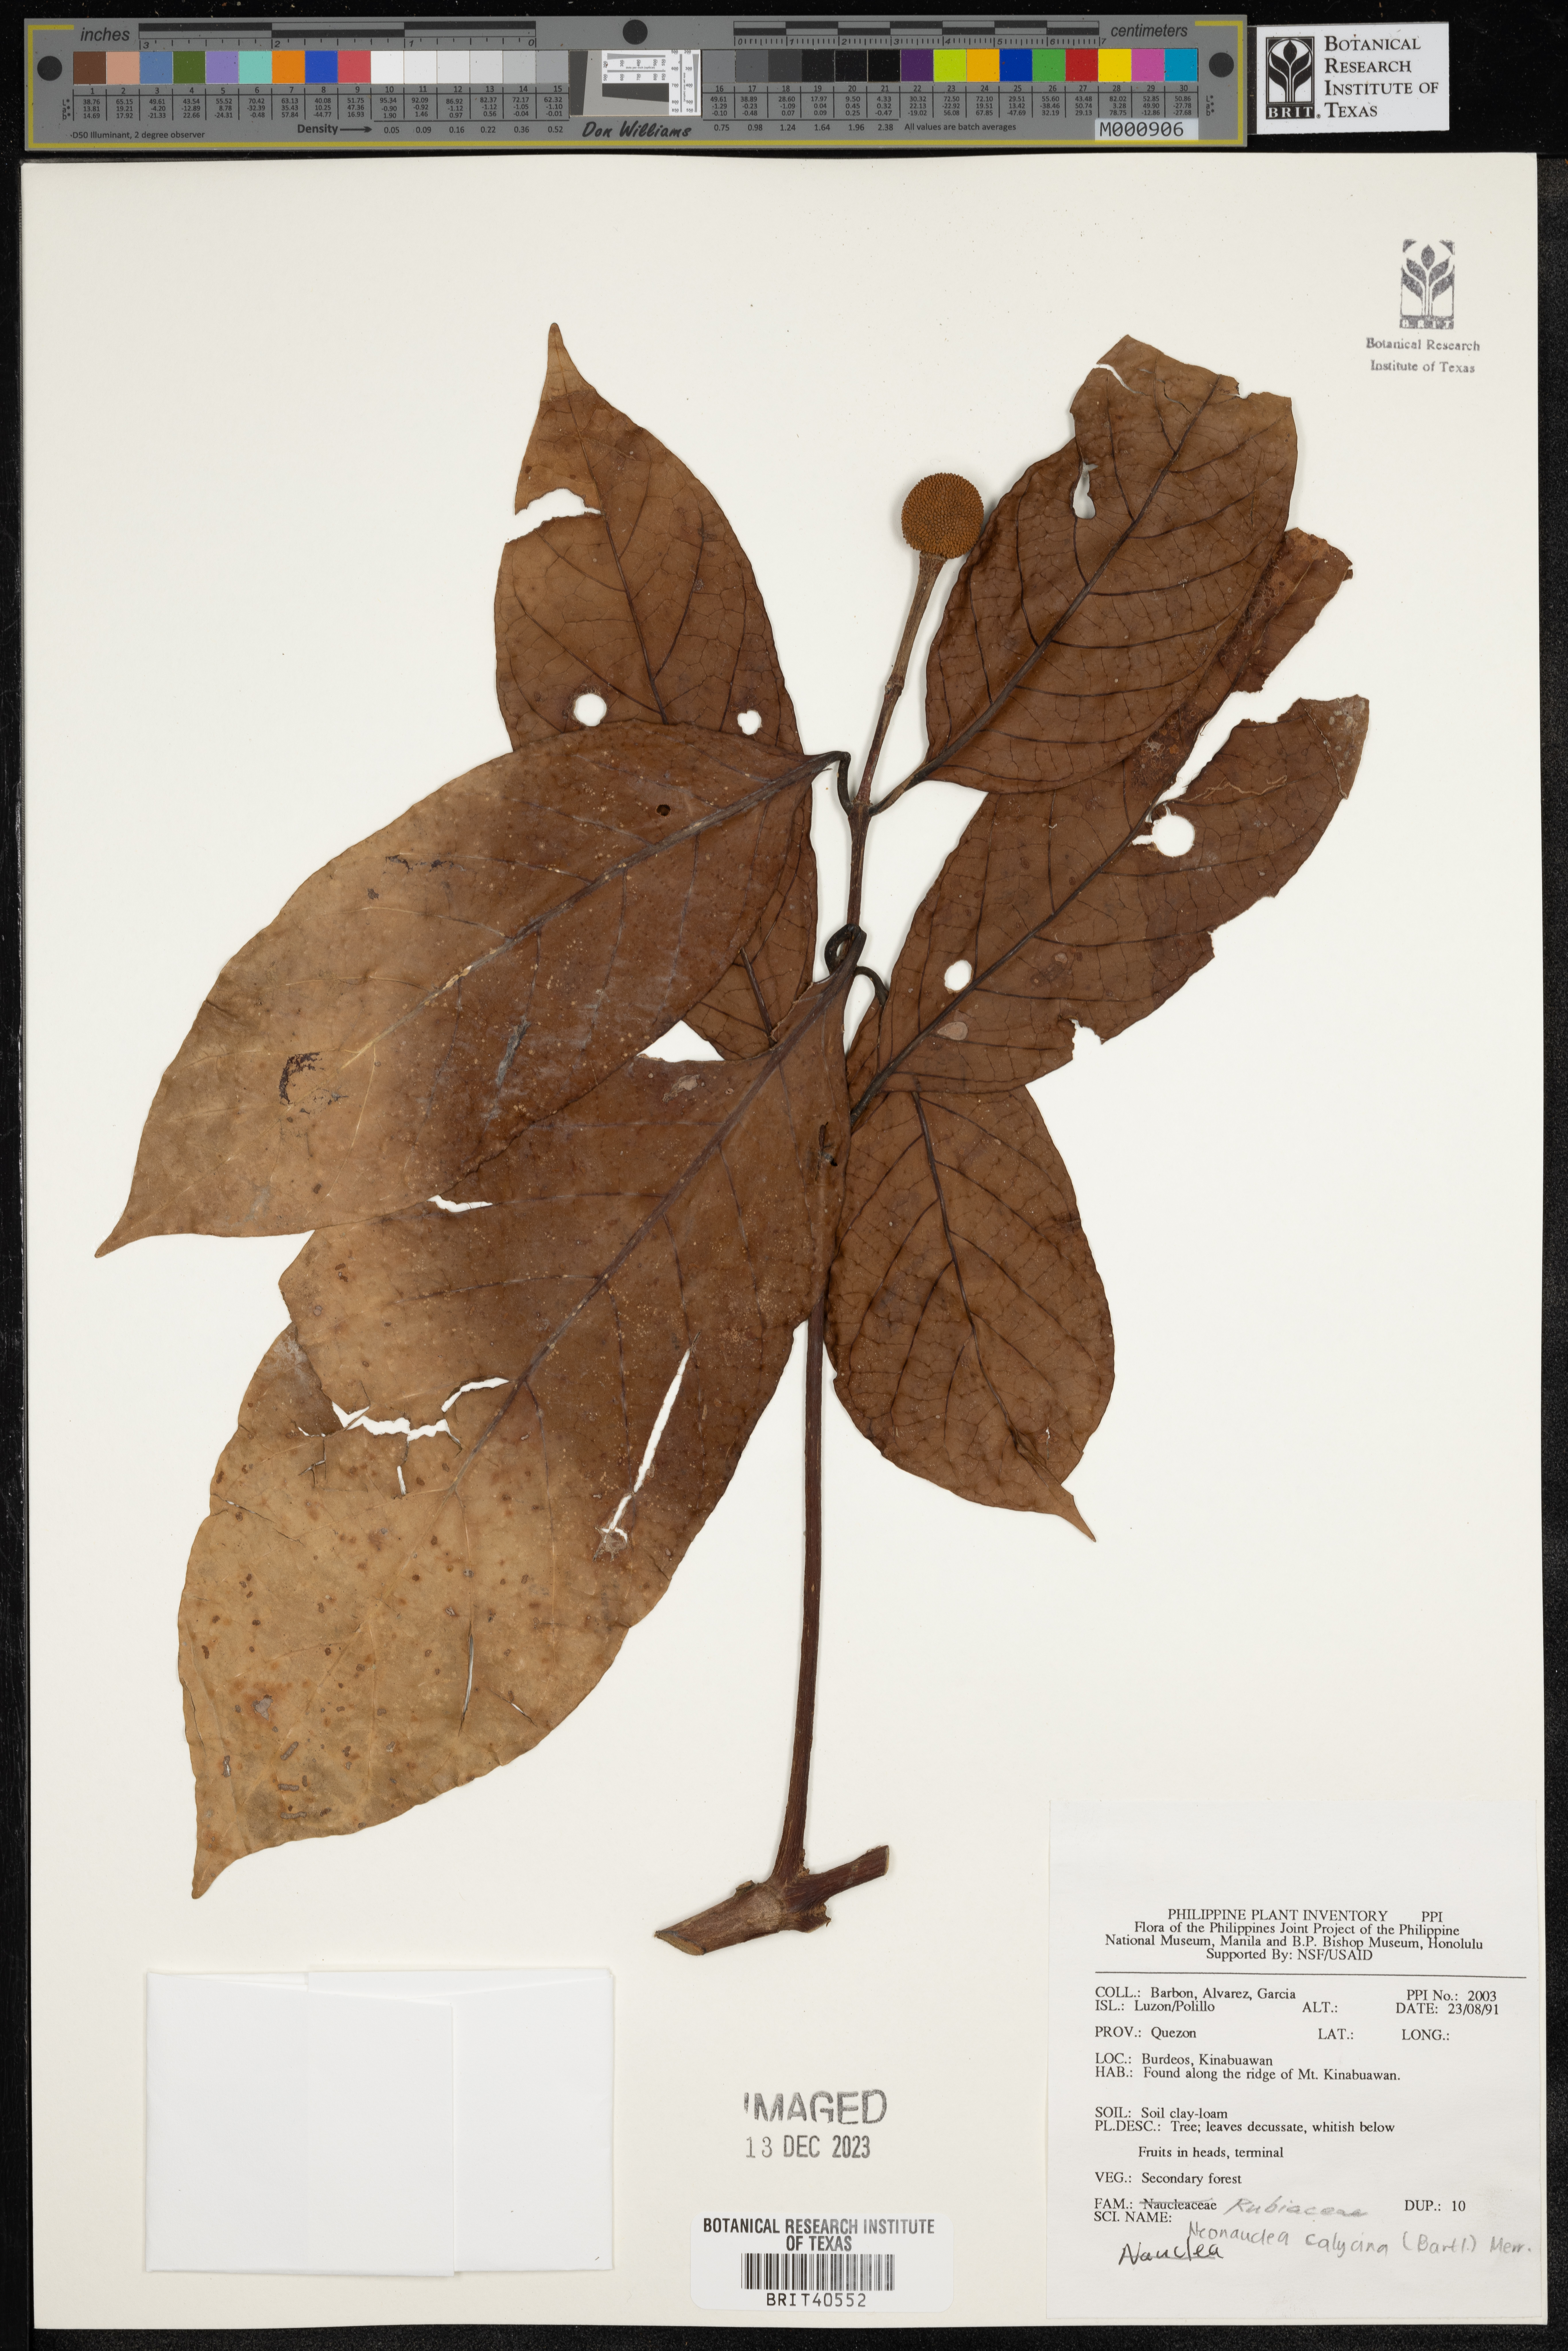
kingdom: Plantae
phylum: Tracheophyta
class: Magnoliopsida
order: Gentianales
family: Rubiaceae
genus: Neonauclea
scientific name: Neonauclea calycina
